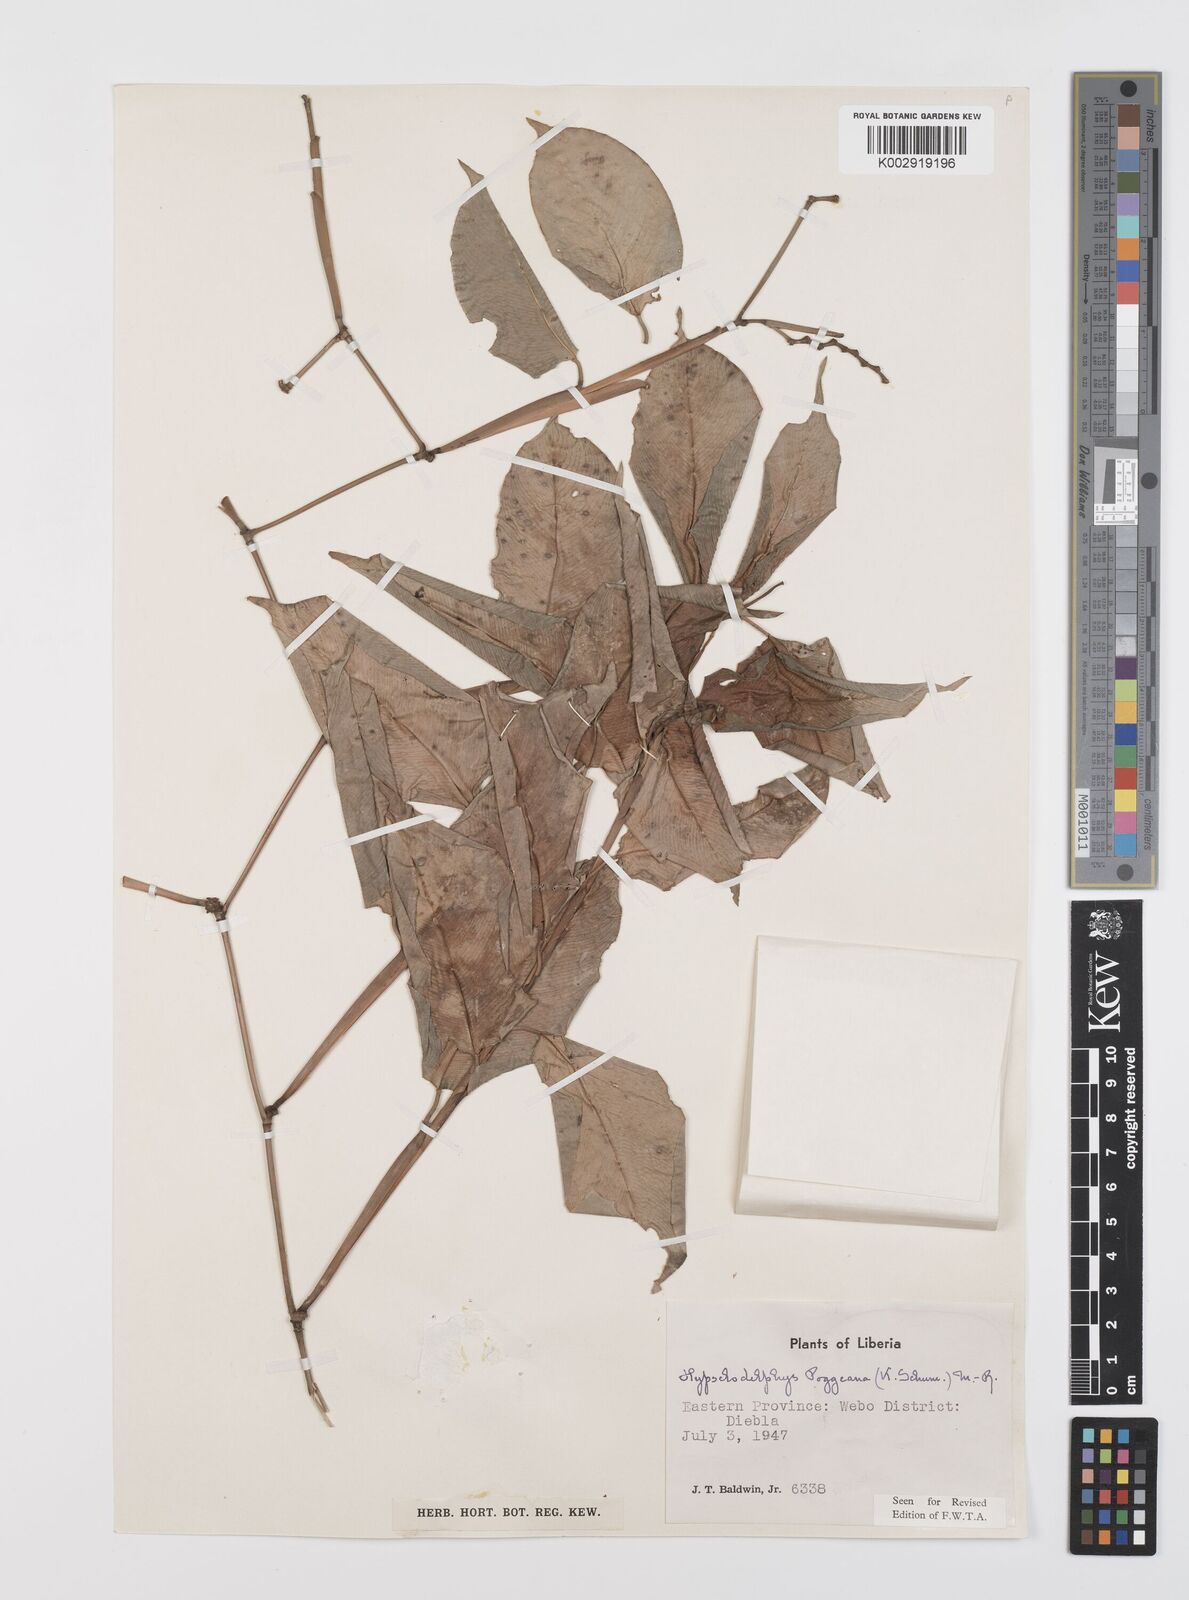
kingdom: Plantae
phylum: Tracheophyta
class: Liliopsida
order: Zingiberales
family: Marantaceae
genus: Hypselodelphys
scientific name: Hypselodelphys poggeana
